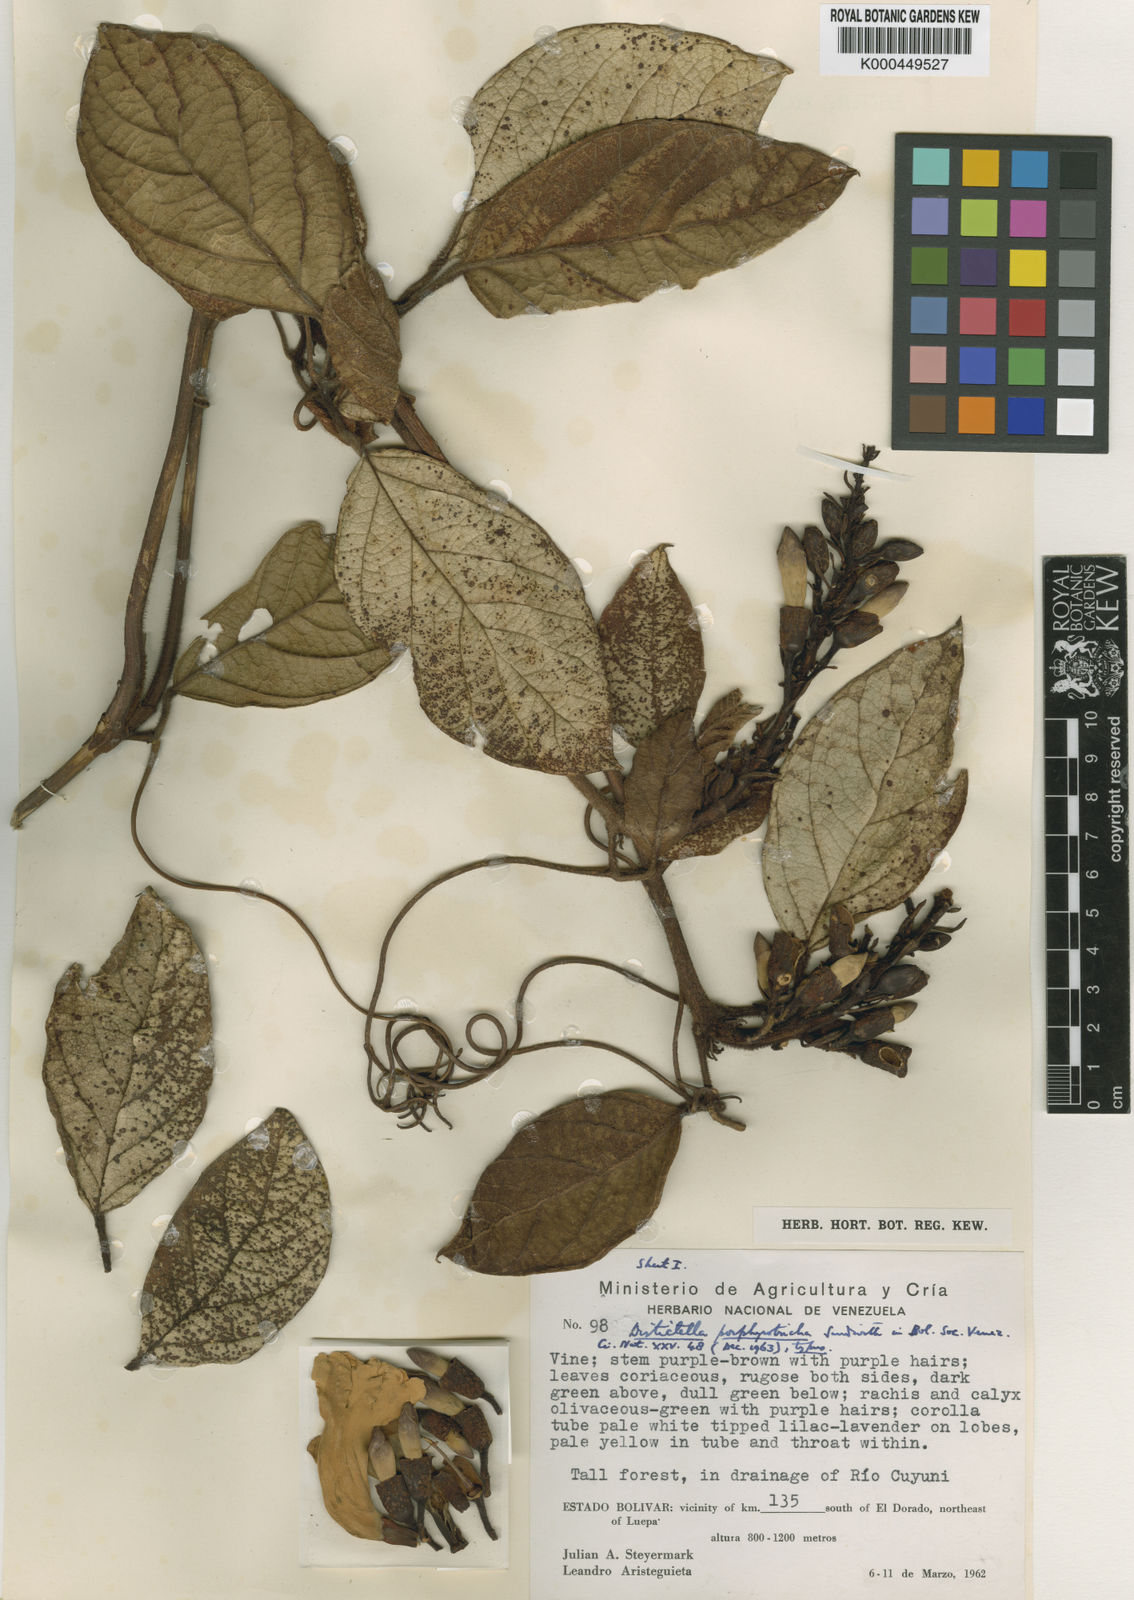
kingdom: Plantae
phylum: Tracheophyta
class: Magnoliopsida
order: Lamiales
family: Bignoniaceae
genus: Amphilophium
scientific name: Amphilophium porphyrotrichum
